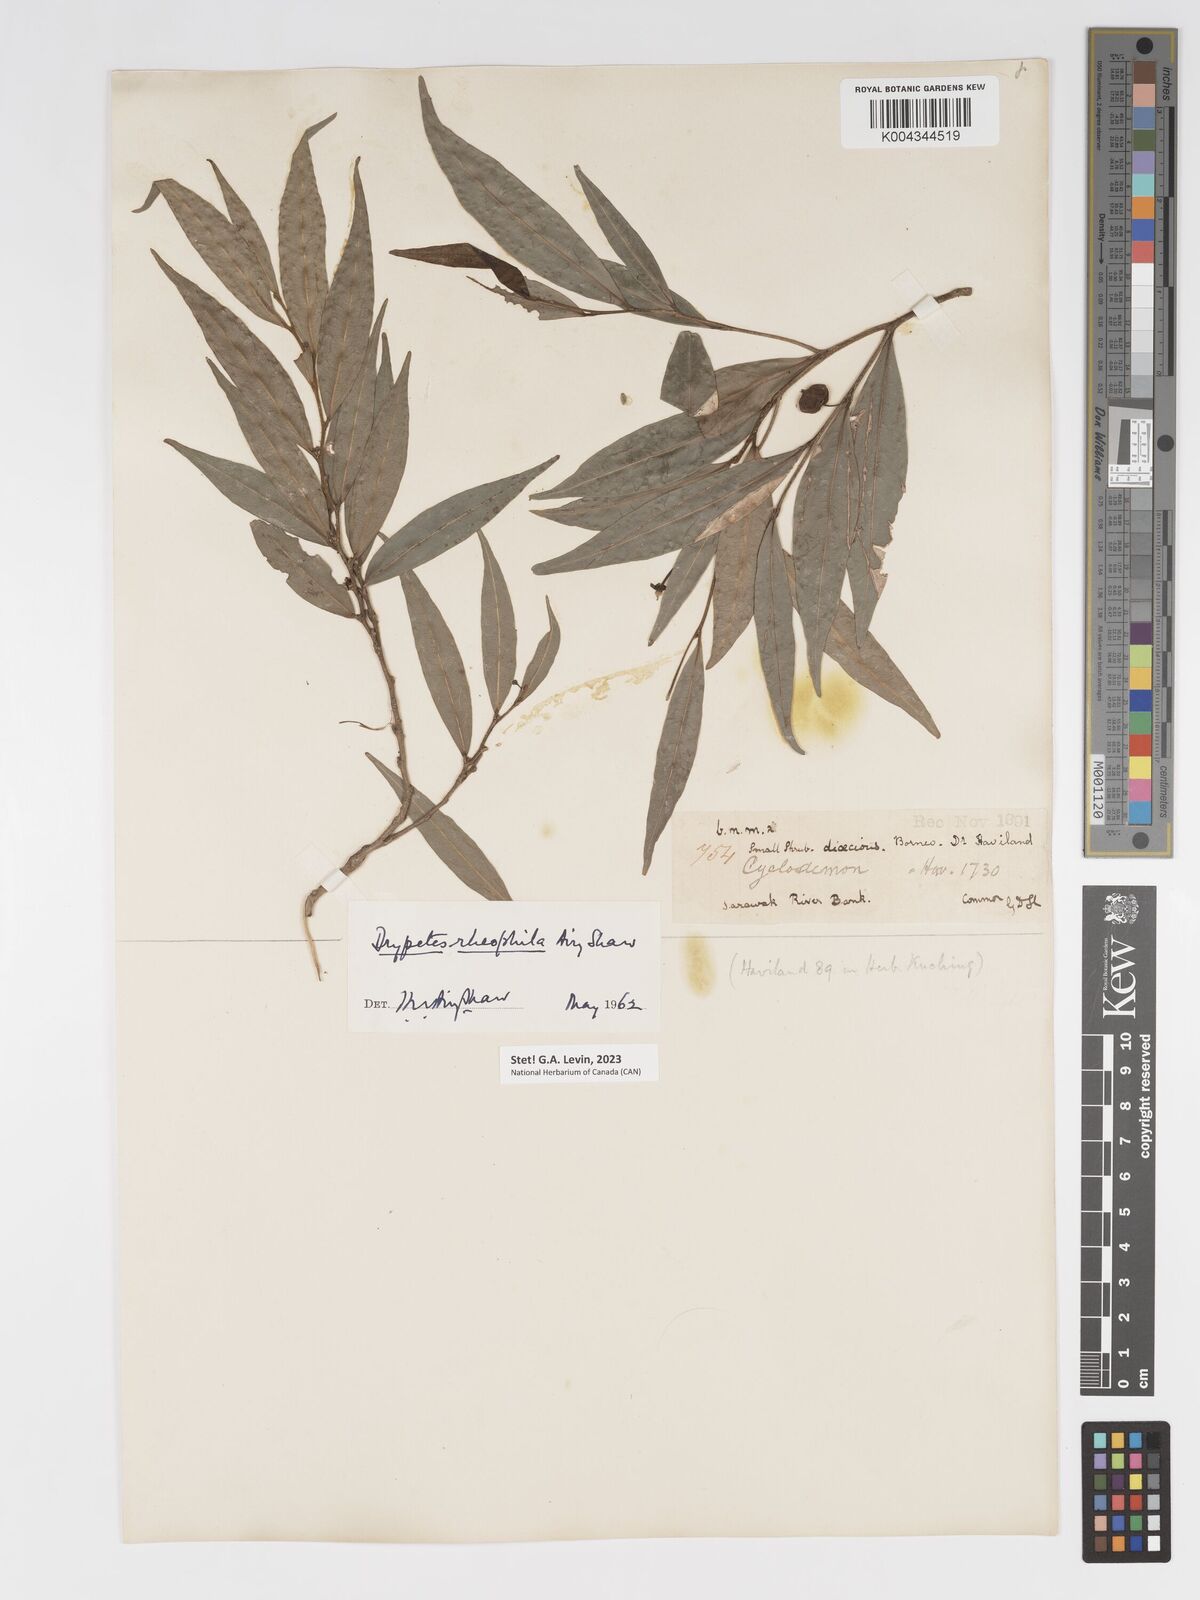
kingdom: Plantae
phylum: Tracheophyta
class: Magnoliopsida
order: Malpighiales
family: Putranjivaceae
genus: Drypetes
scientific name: Drypetes rhakodiskos
